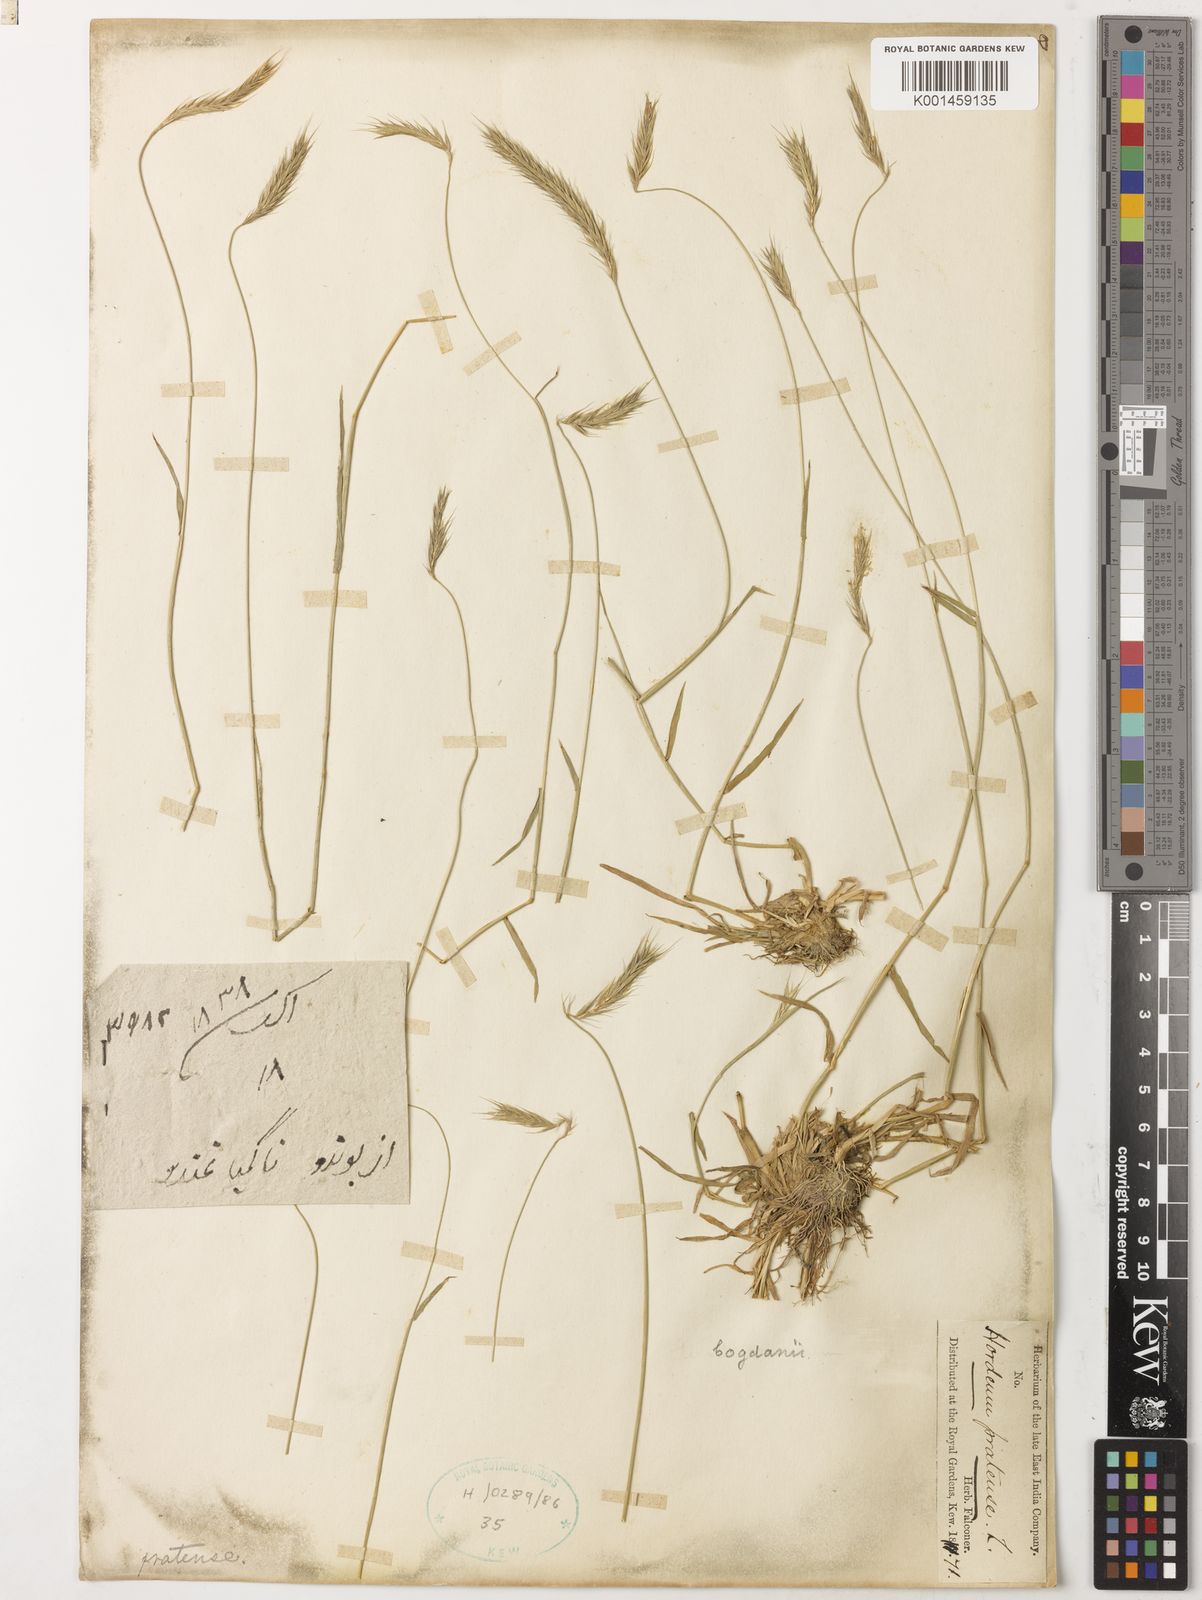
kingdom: Plantae
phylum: Tracheophyta
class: Liliopsida
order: Poales
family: Poaceae
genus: Hordeum
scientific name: Hordeum bogdanii
